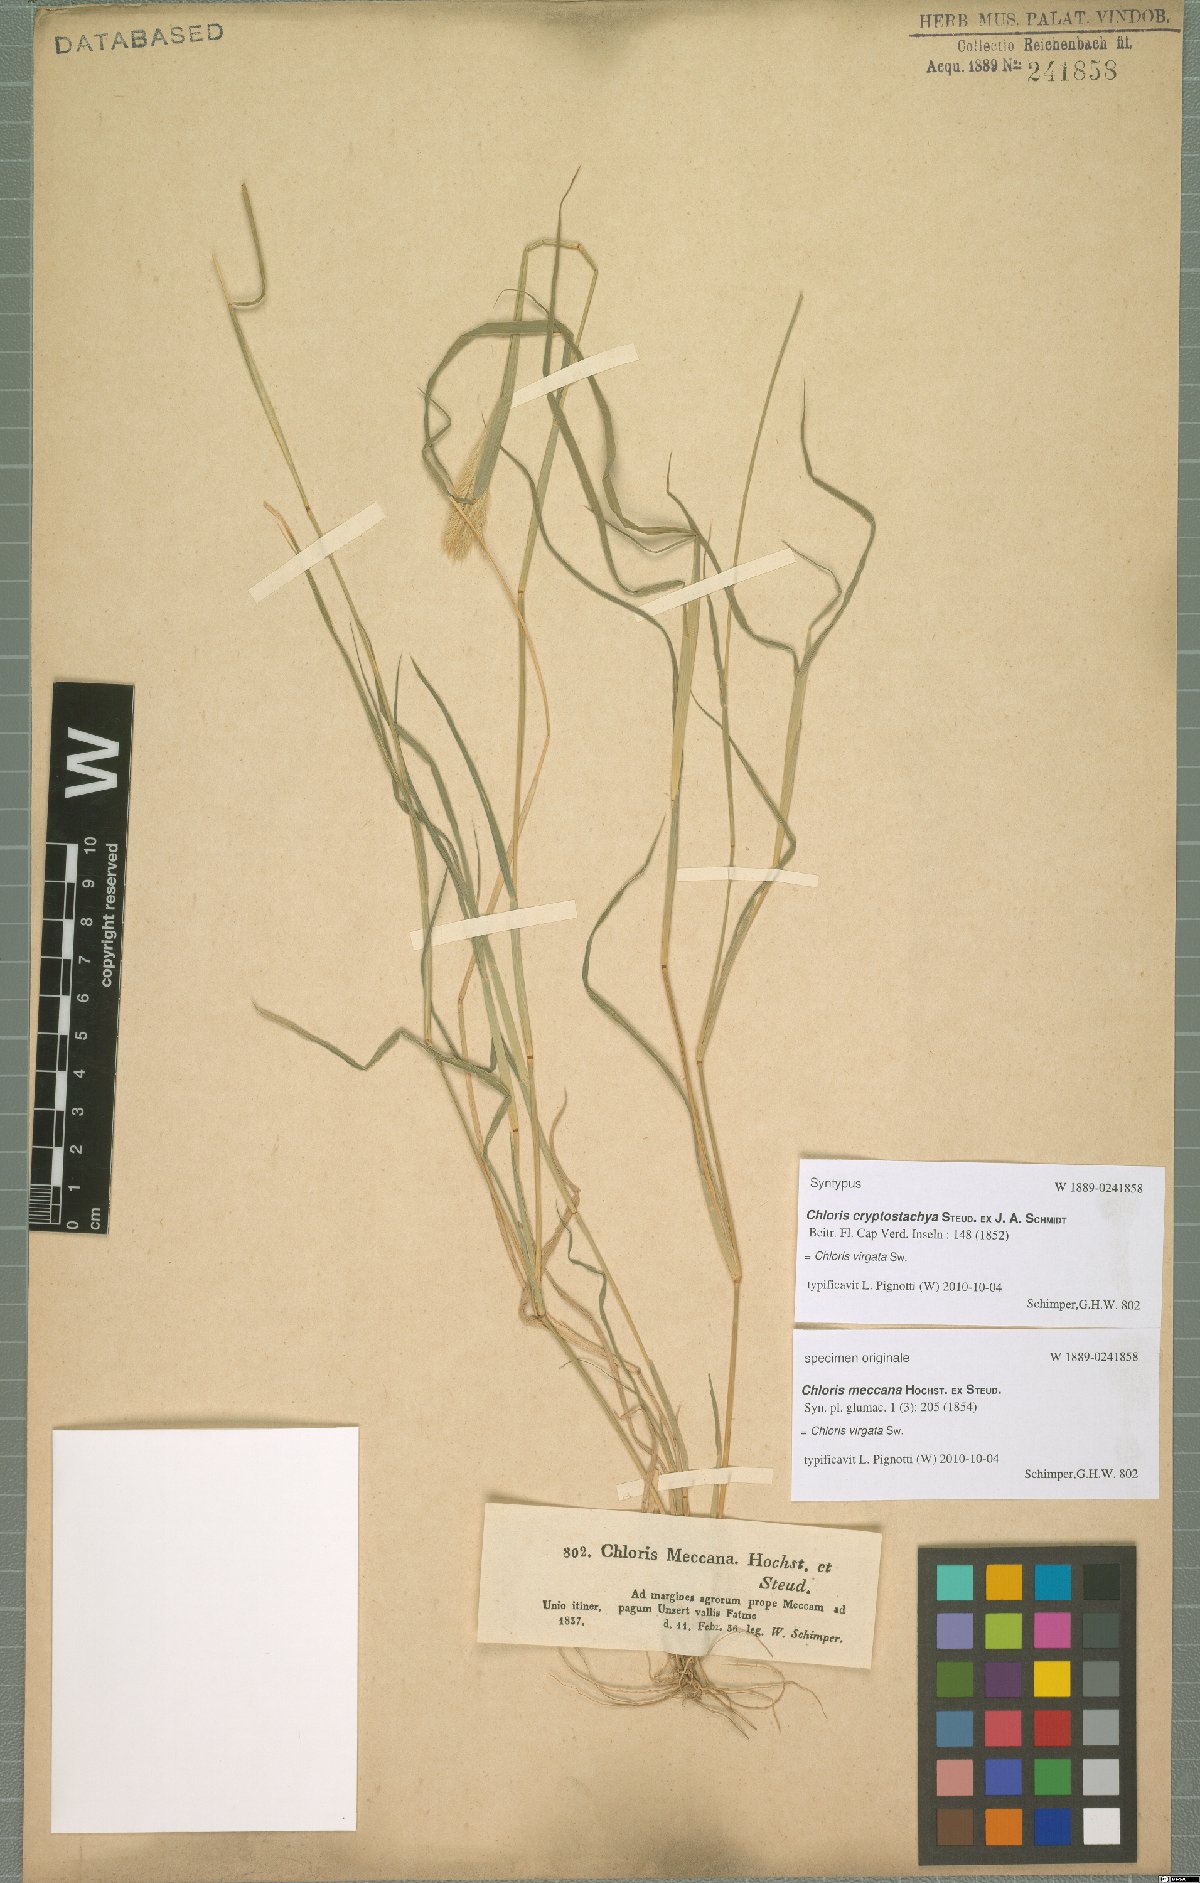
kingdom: Plantae
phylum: Tracheophyta
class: Liliopsida
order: Poales
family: Poaceae
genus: Chloris
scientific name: Chloris virgata
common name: Feathery rhodes-grass
